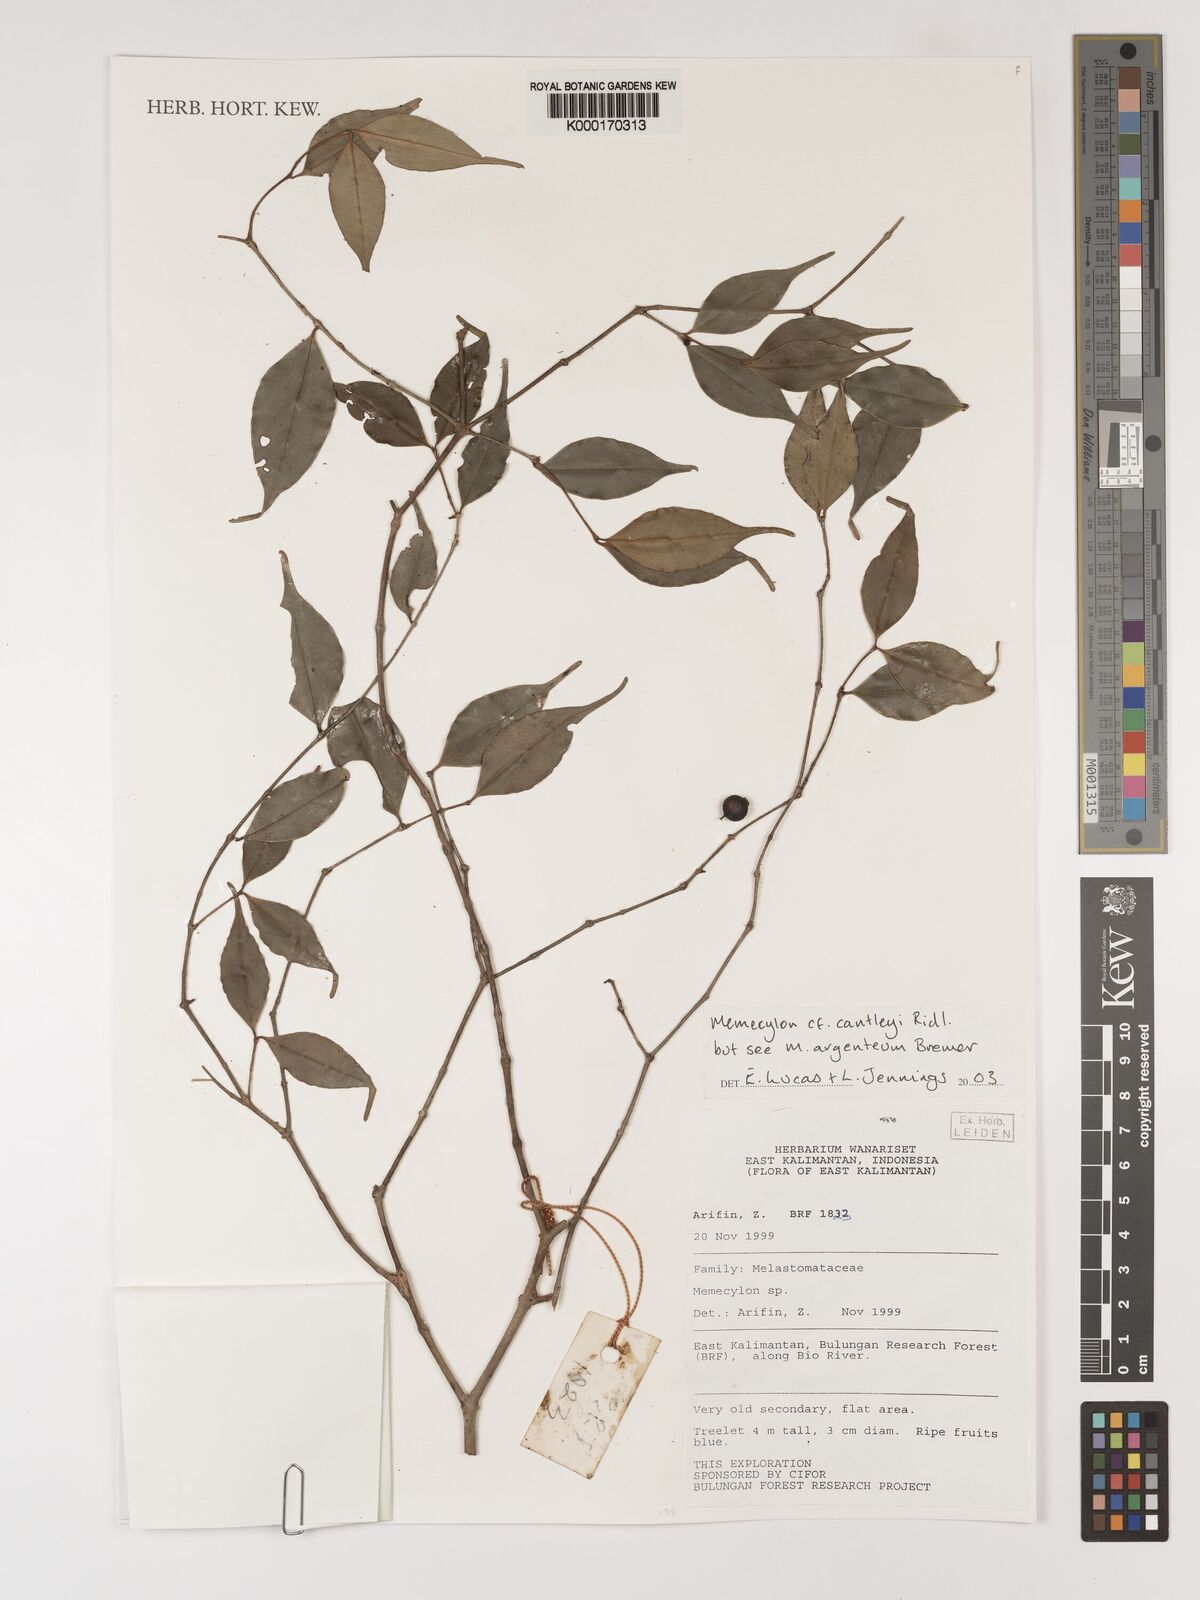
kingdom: Plantae
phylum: Tracheophyta
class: Magnoliopsida
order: Myrtales
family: Melastomataceae
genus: Memecylon
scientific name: Memecylon cantleyi
